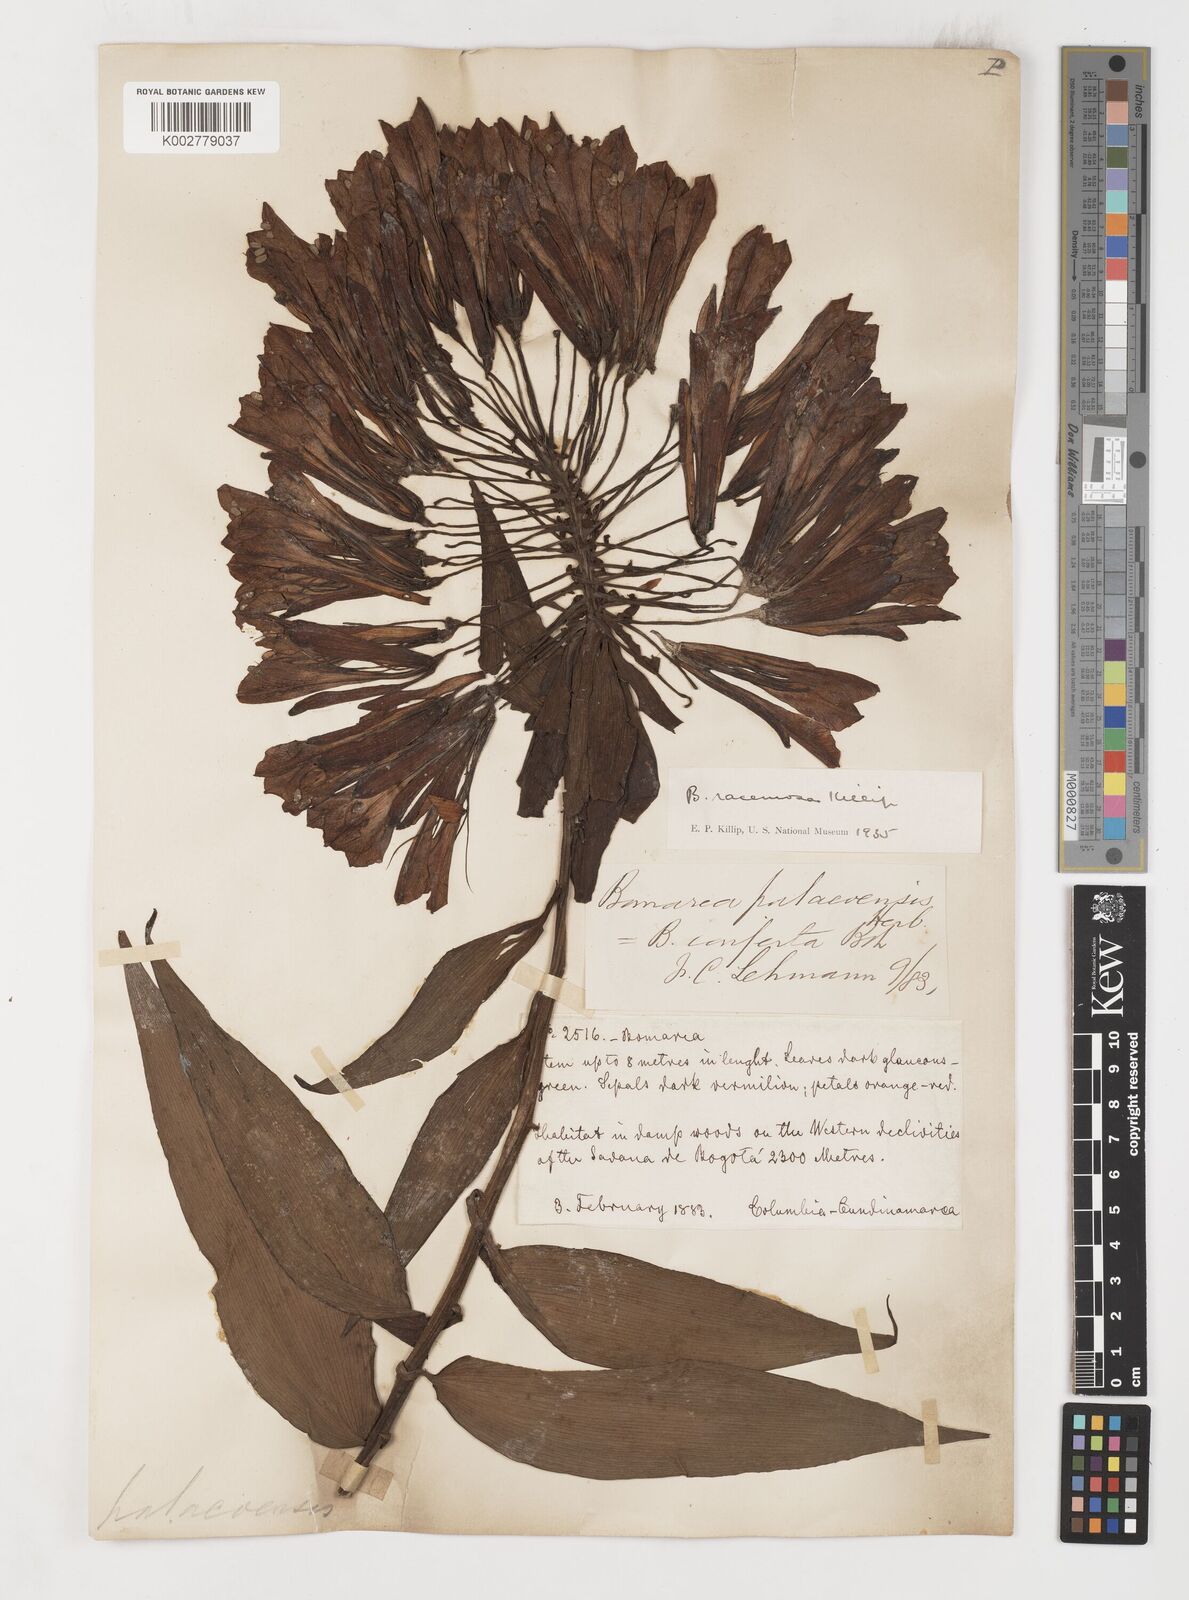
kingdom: Plantae
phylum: Tracheophyta
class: Liliopsida
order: Liliales
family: Alstroemeriaceae
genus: Bomarea
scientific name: Bomarea patinii
